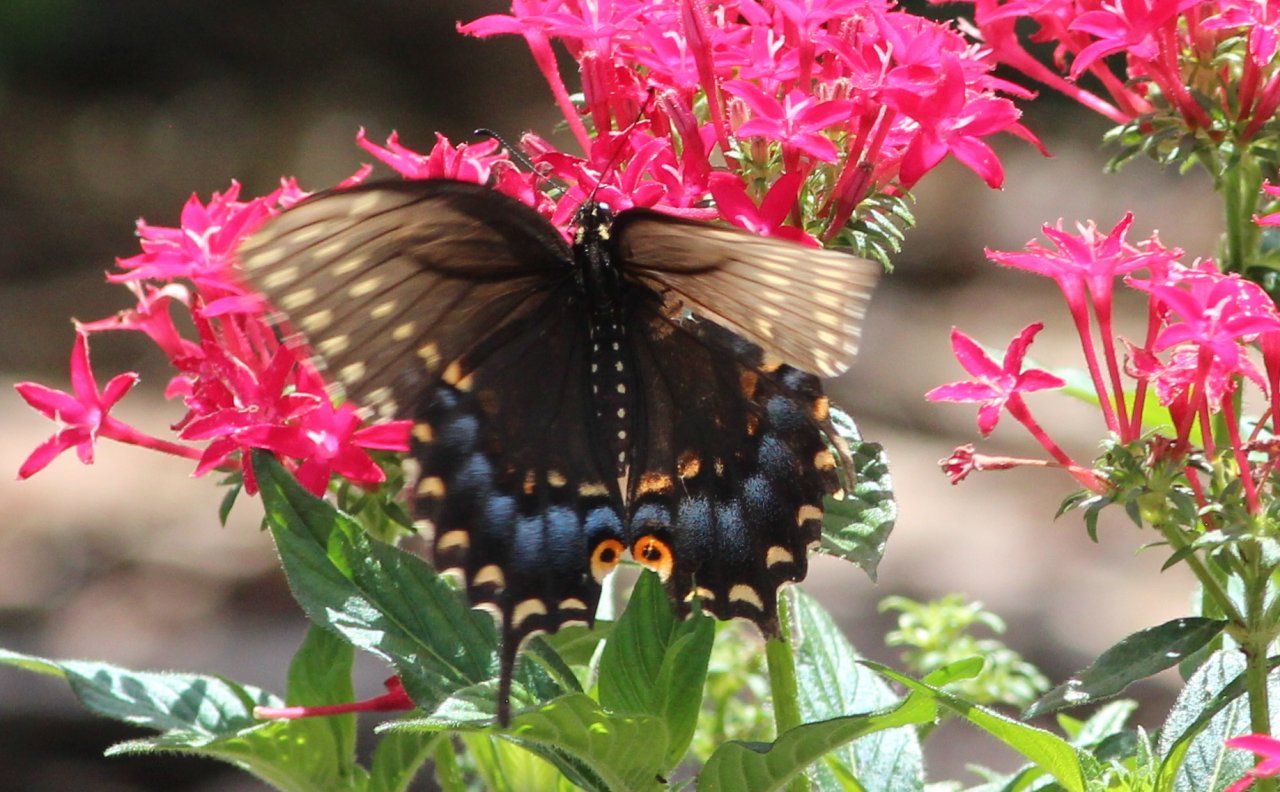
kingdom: Animalia
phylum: Arthropoda
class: Insecta
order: Lepidoptera
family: Papilionidae
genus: Papilio
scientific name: Papilio polyxenes
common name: Black Swallowtail
